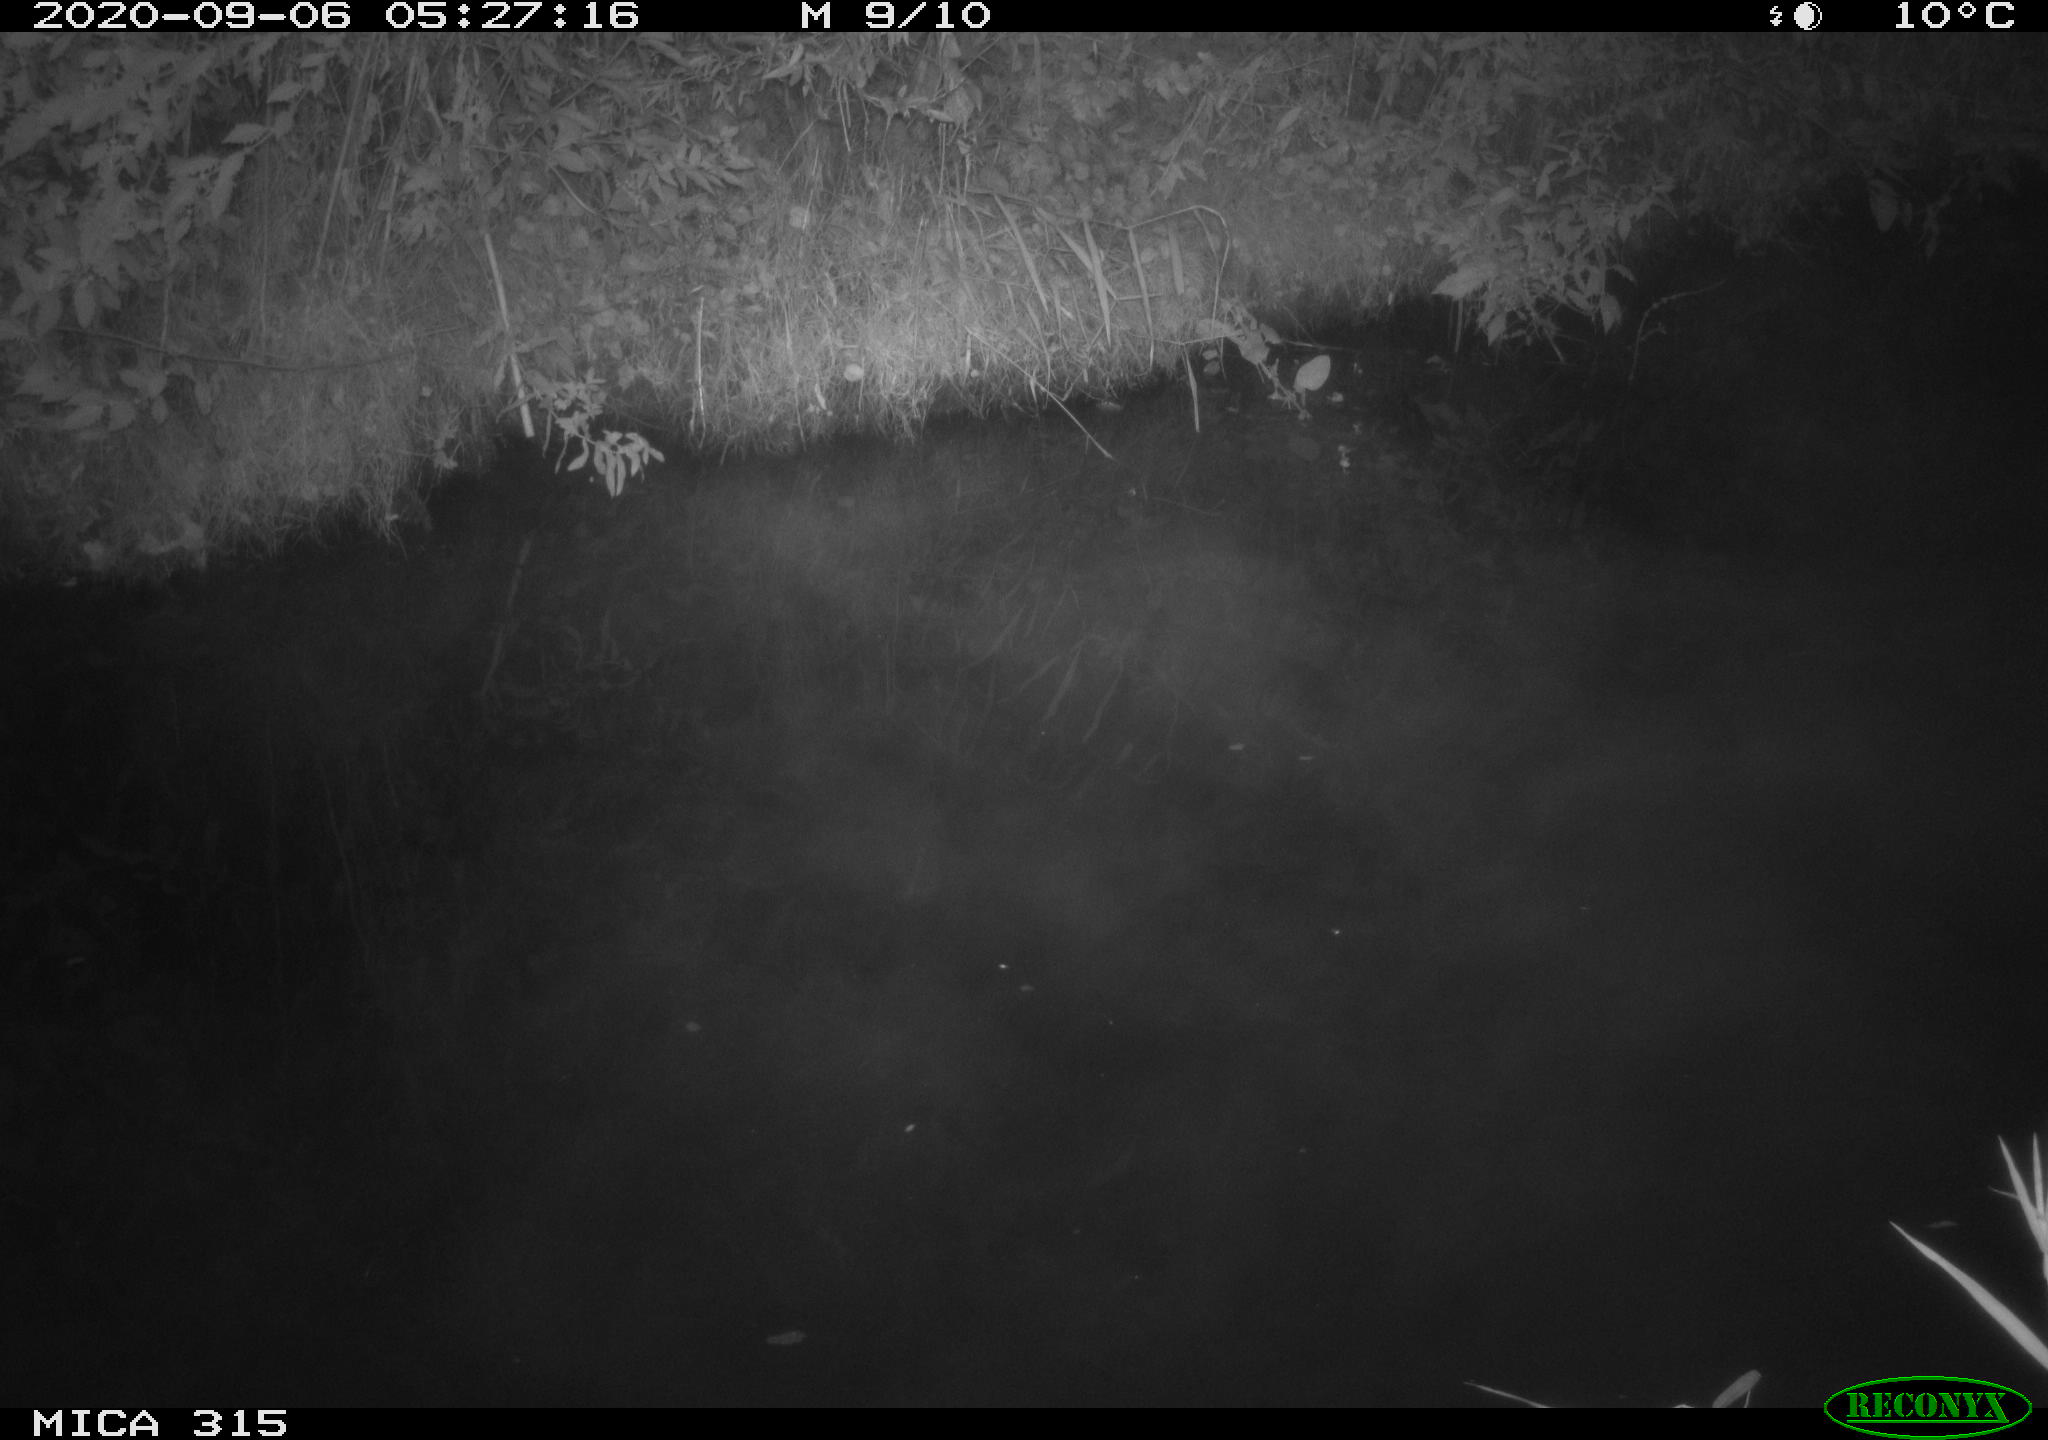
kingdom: Animalia
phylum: Chordata
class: Aves
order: Anseriformes
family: Anatidae
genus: Anas
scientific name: Anas platyrhynchos
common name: Mallard
